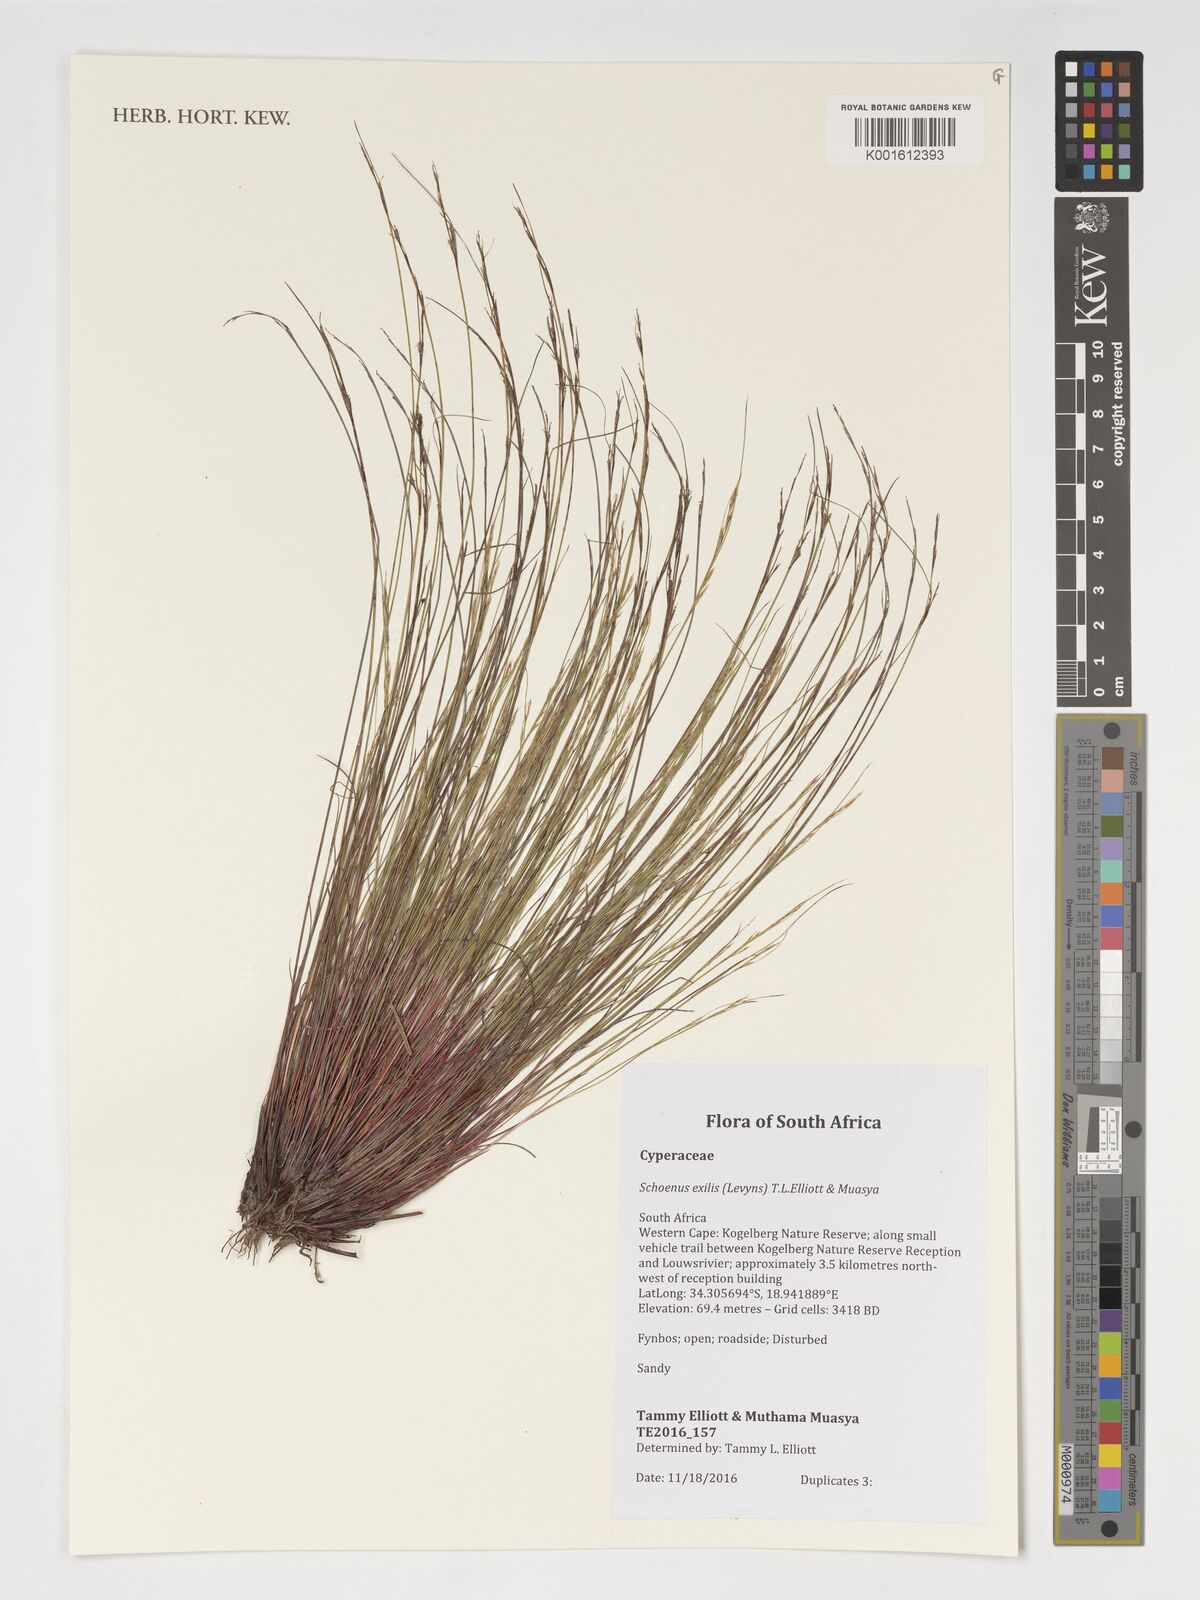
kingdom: Plantae
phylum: Tracheophyta
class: Liliopsida
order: Poales
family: Cyperaceae
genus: Schoenus
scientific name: Schoenus exilis
